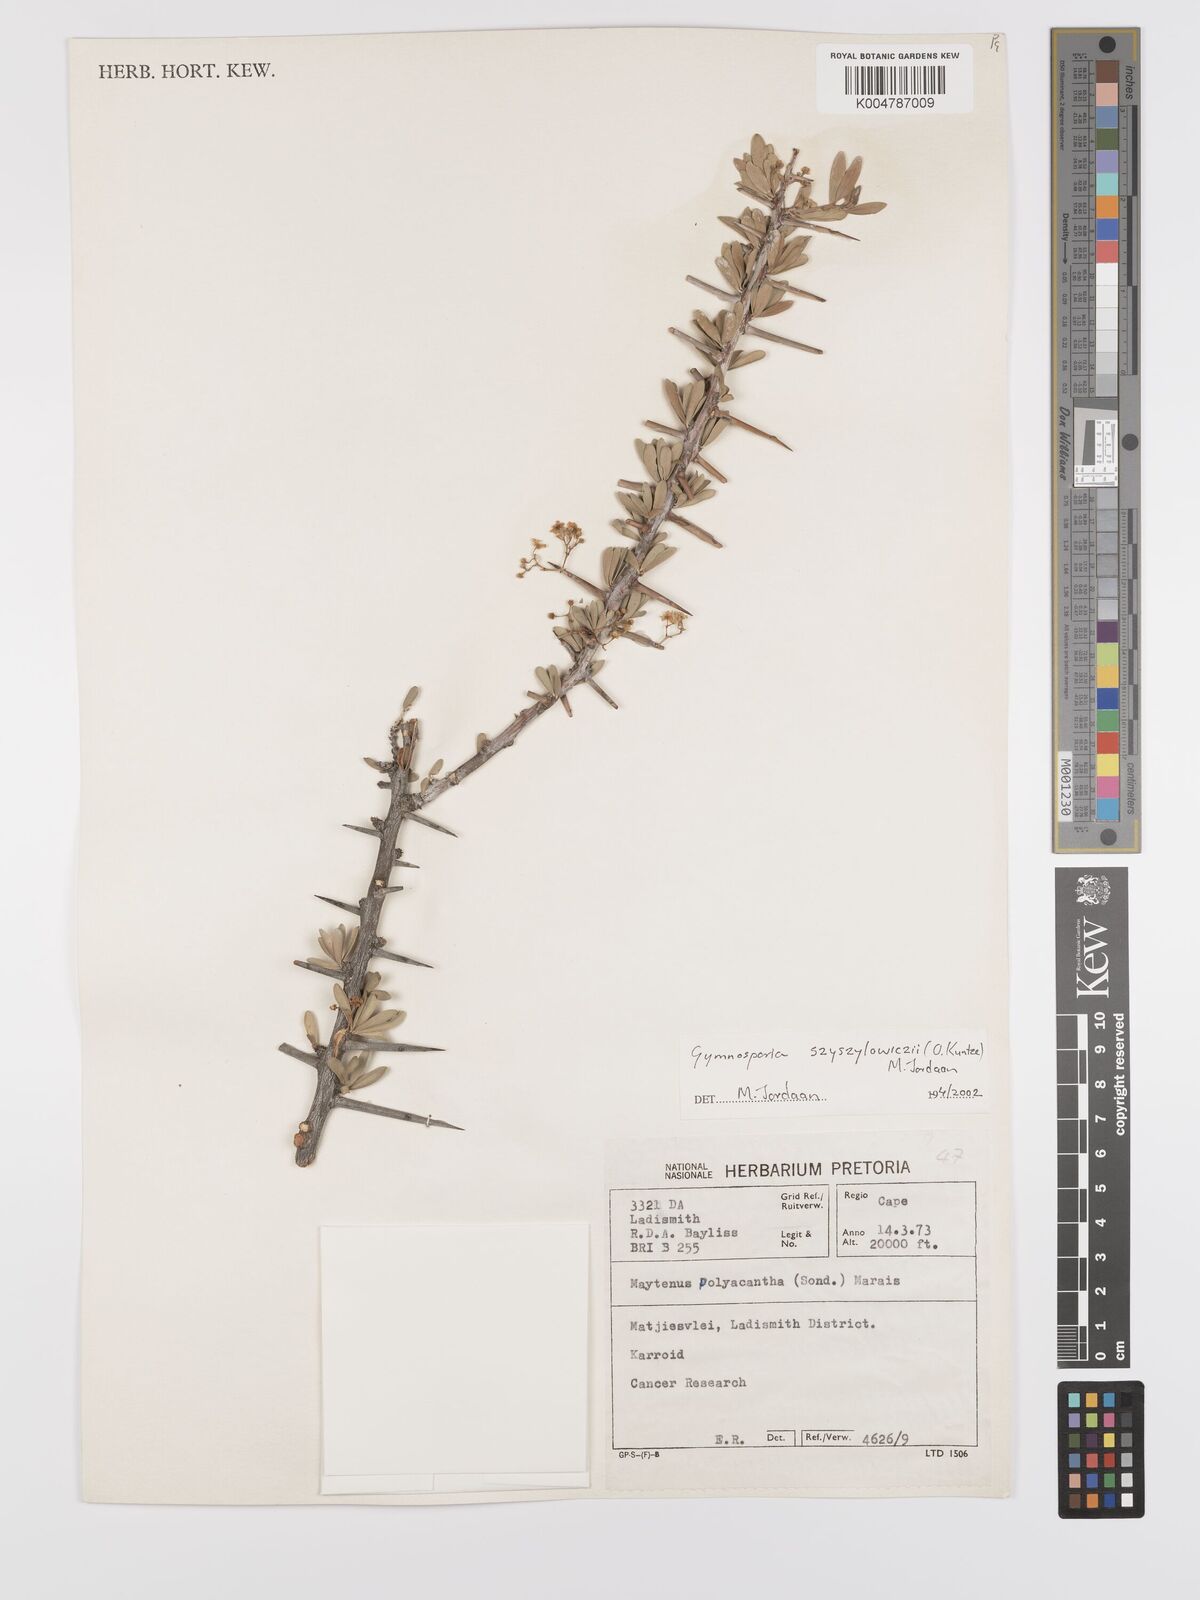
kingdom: Plantae
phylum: Tracheophyta
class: Magnoliopsida
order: Celastrales
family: Celastraceae
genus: Gymnosporia
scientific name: Gymnosporia
